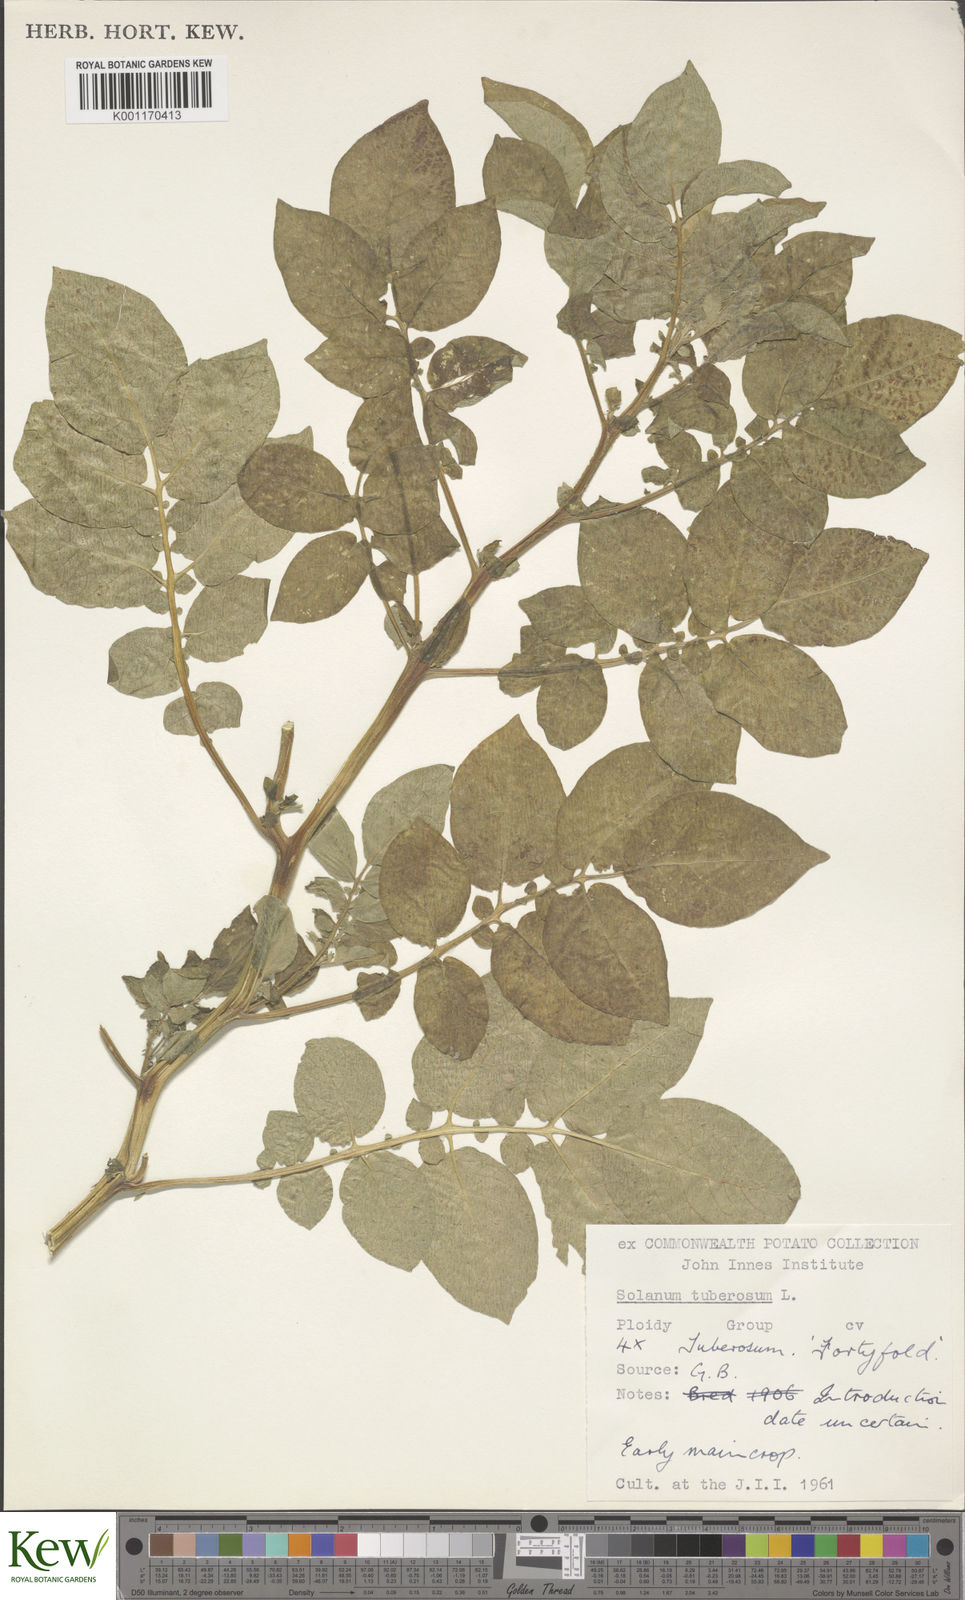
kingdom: Plantae
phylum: Tracheophyta
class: Magnoliopsida
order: Solanales
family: Solanaceae
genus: Solanum
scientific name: Solanum tuberosum
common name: Potato
